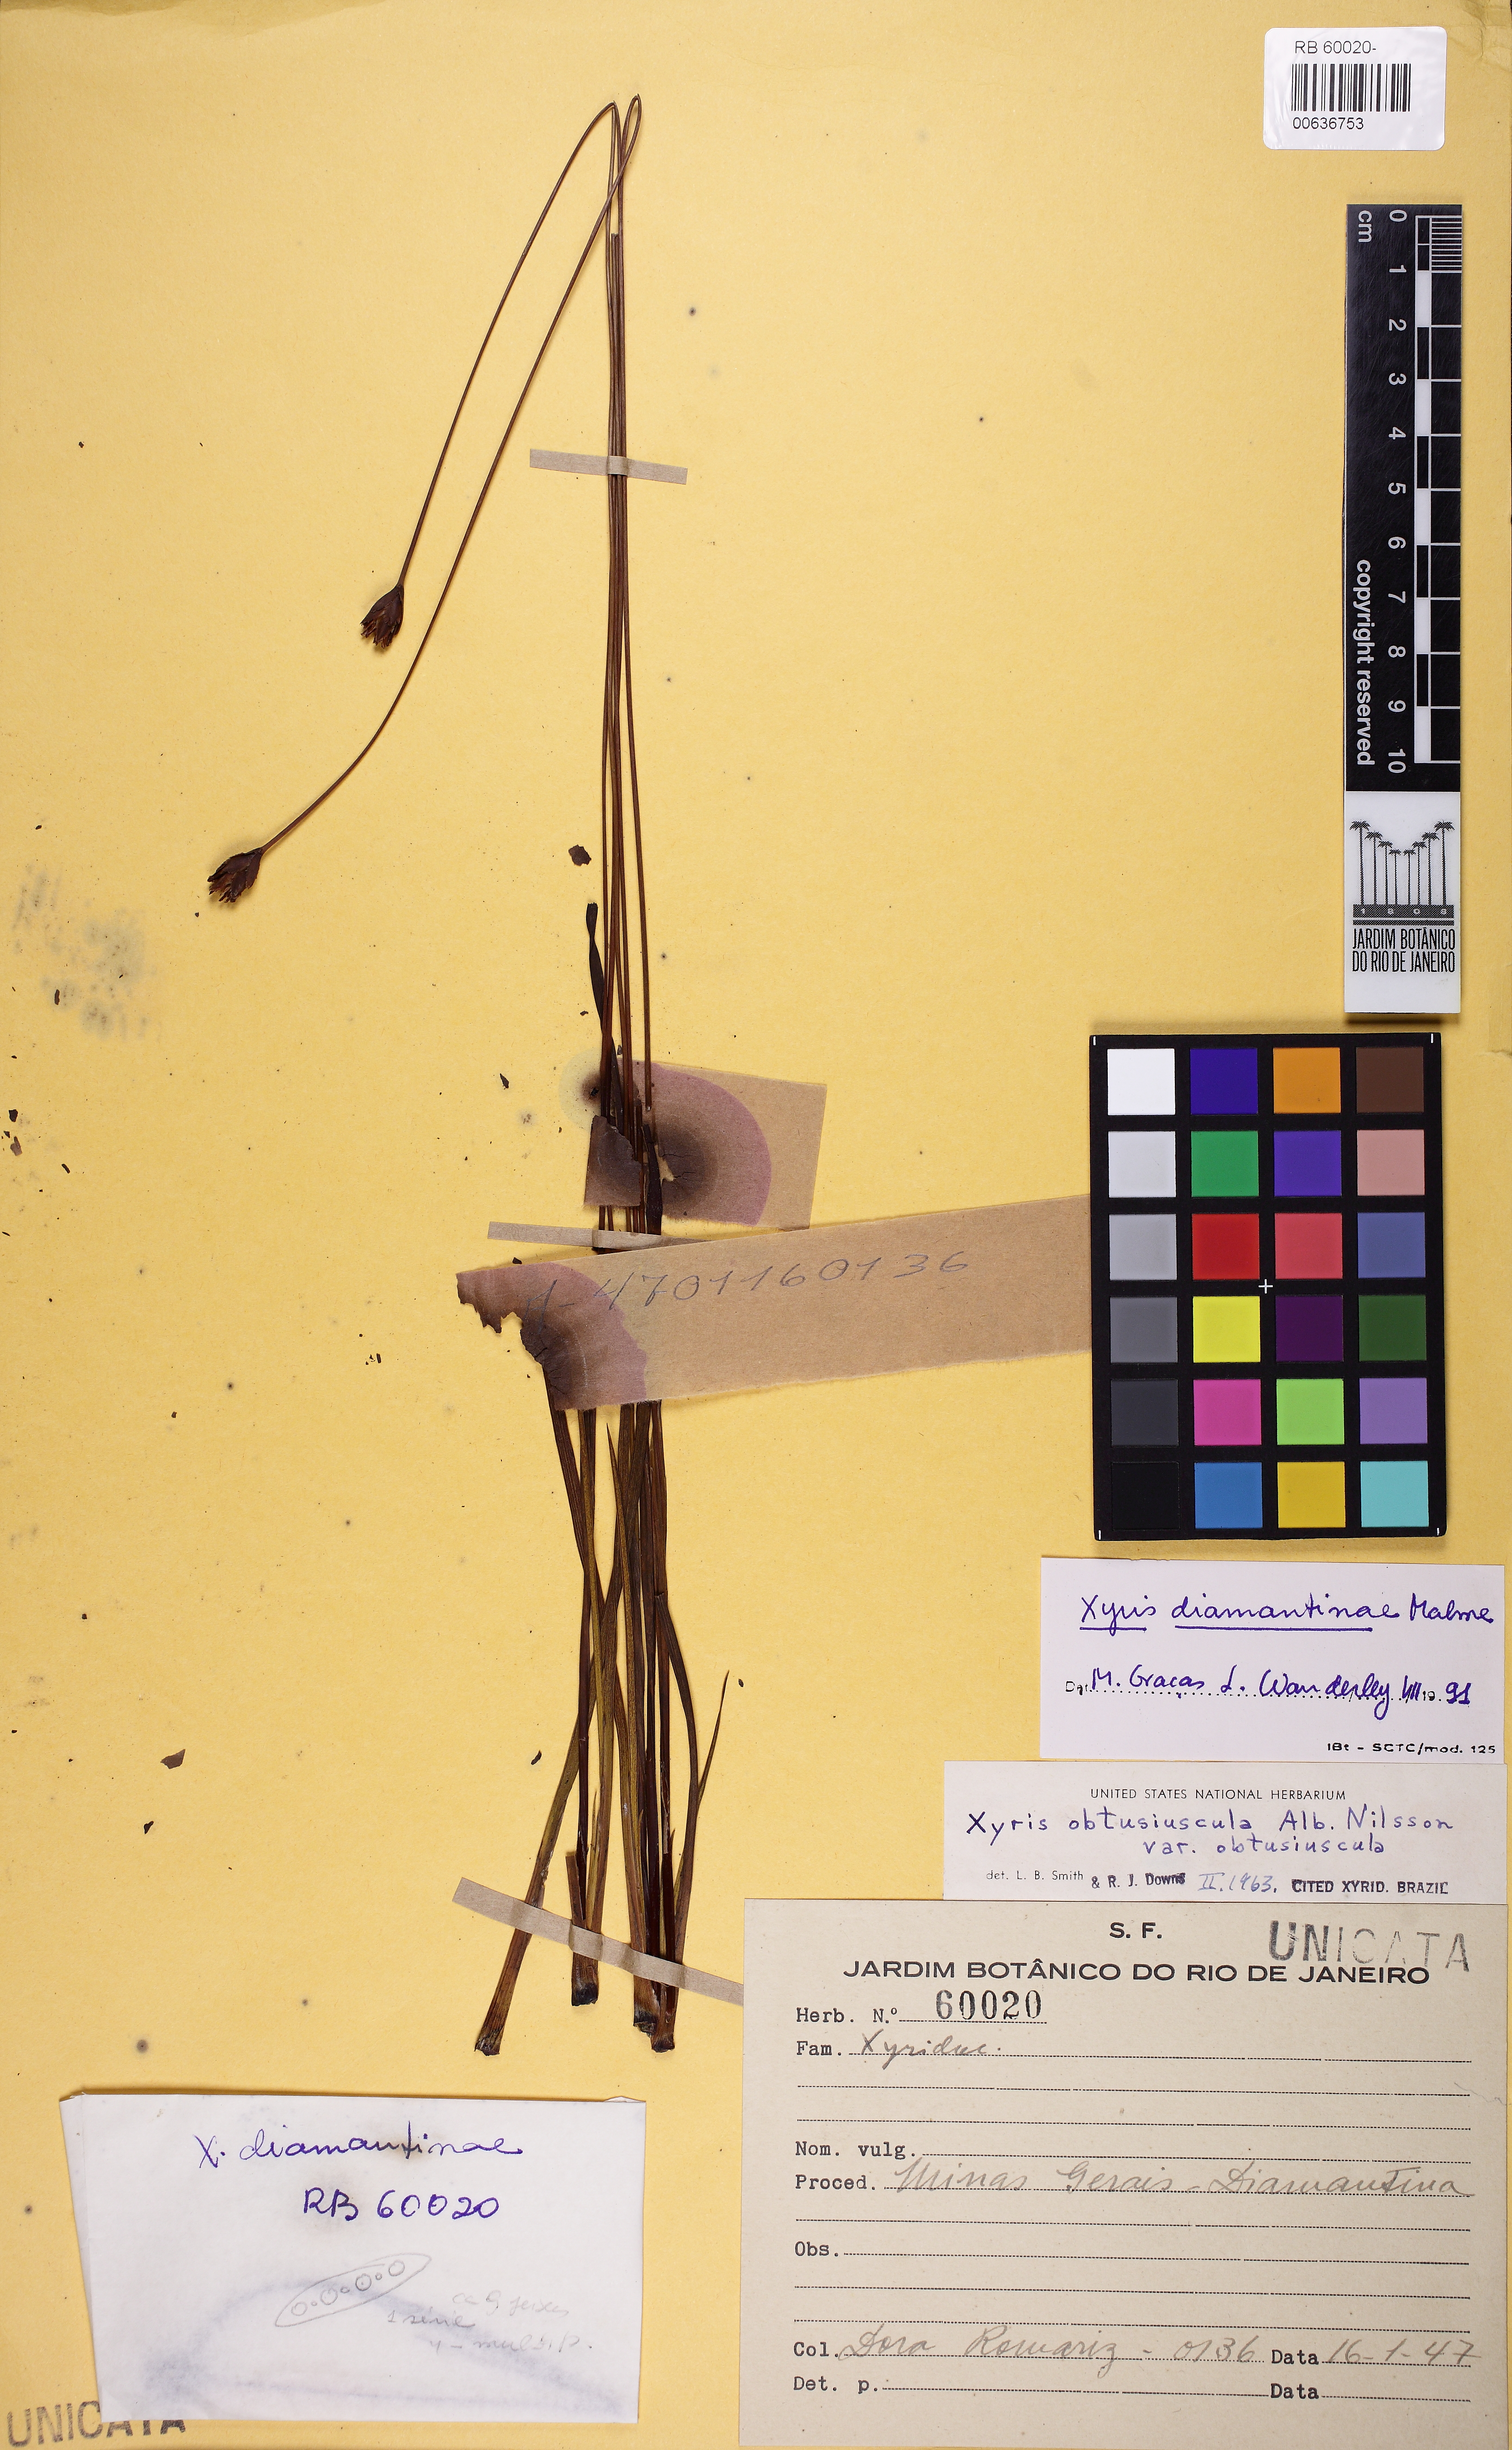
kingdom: Plantae
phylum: Tracheophyta
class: Liliopsida
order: Poales
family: Xyridaceae
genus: Xyris
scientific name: Xyris diamantinae
